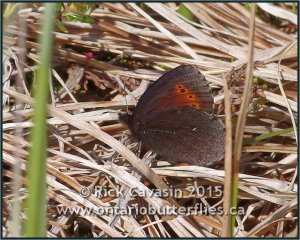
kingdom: Animalia
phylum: Arthropoda
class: Insecta
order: Lepidoptera
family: Nymphalidae
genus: Erebia
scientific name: Erebia disa
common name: Taiga Alpine
